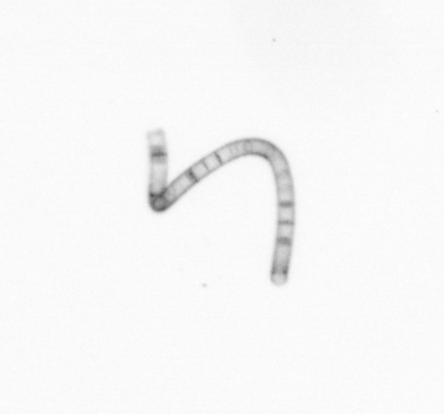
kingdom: Chromista
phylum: Ochrophyta
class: Bacillariophyceae
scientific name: Bacillariophyceae
